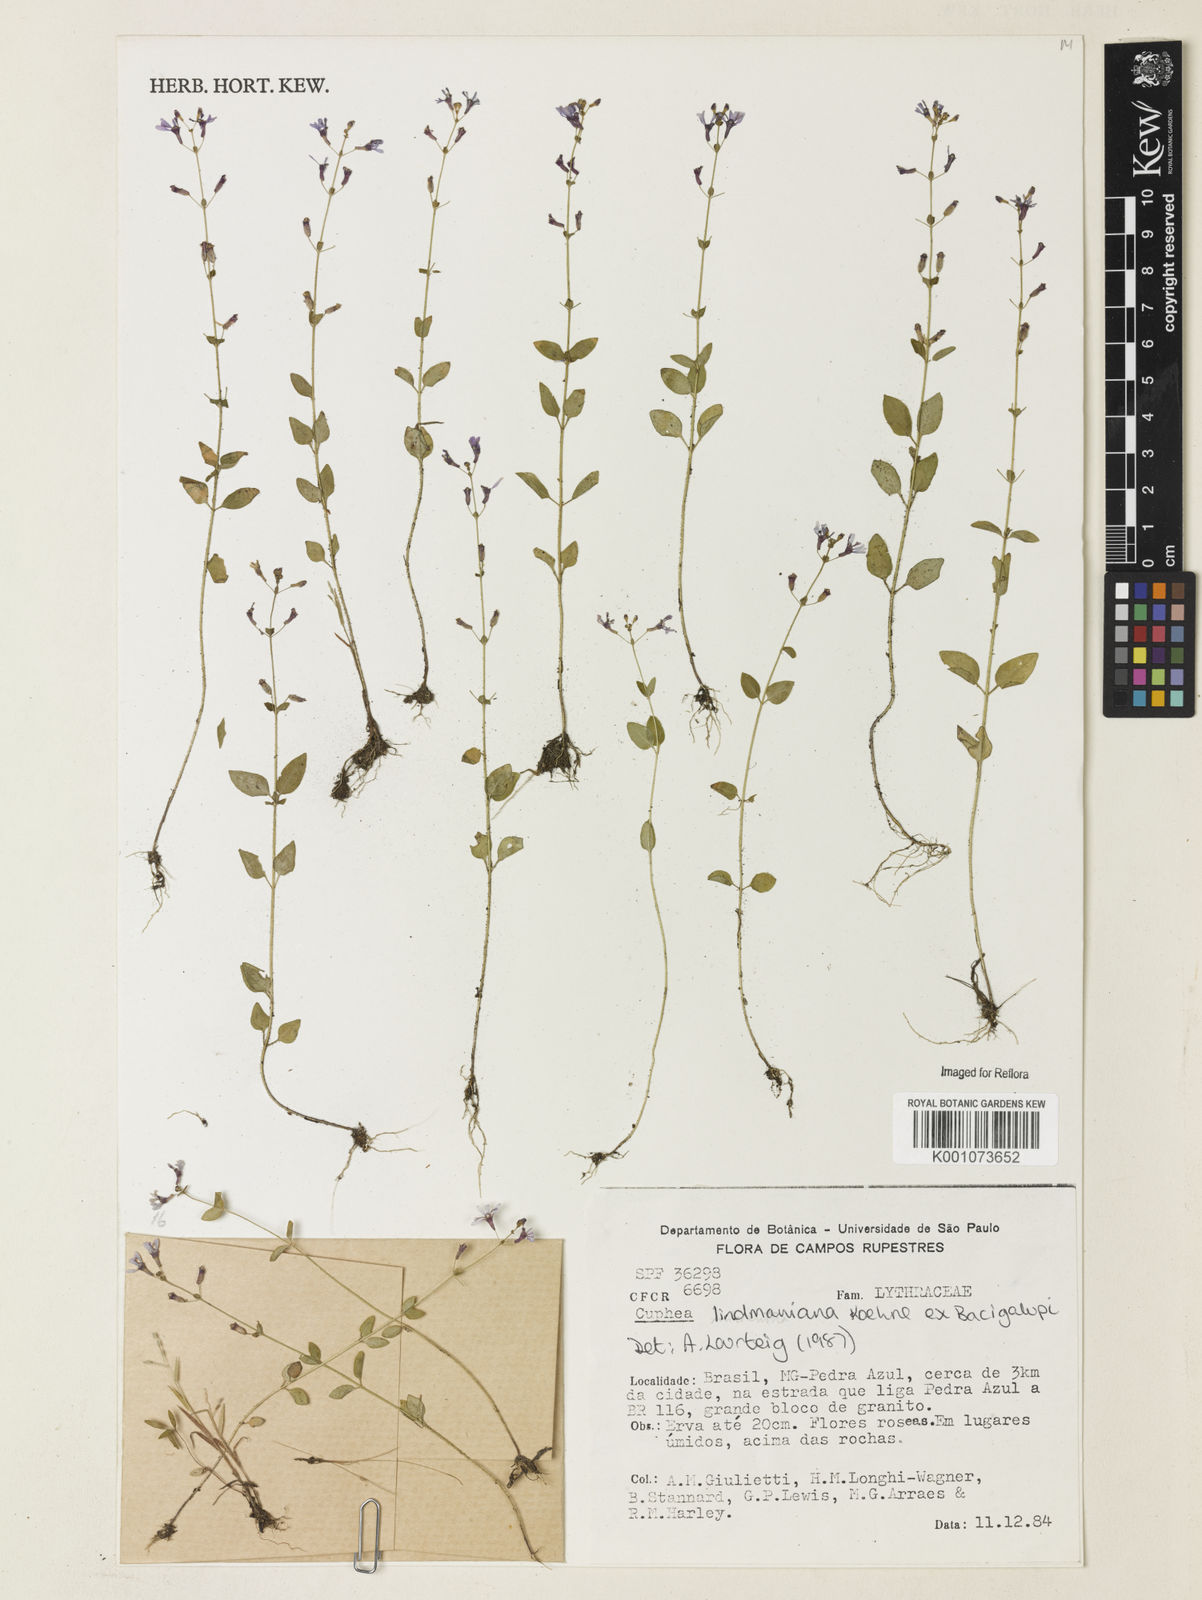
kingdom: Plantae
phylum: Tracheophyta
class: Magnoliopsida
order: Myrtales
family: Lythraceae
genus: Cuphea
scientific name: Cuphea lindmaniana
